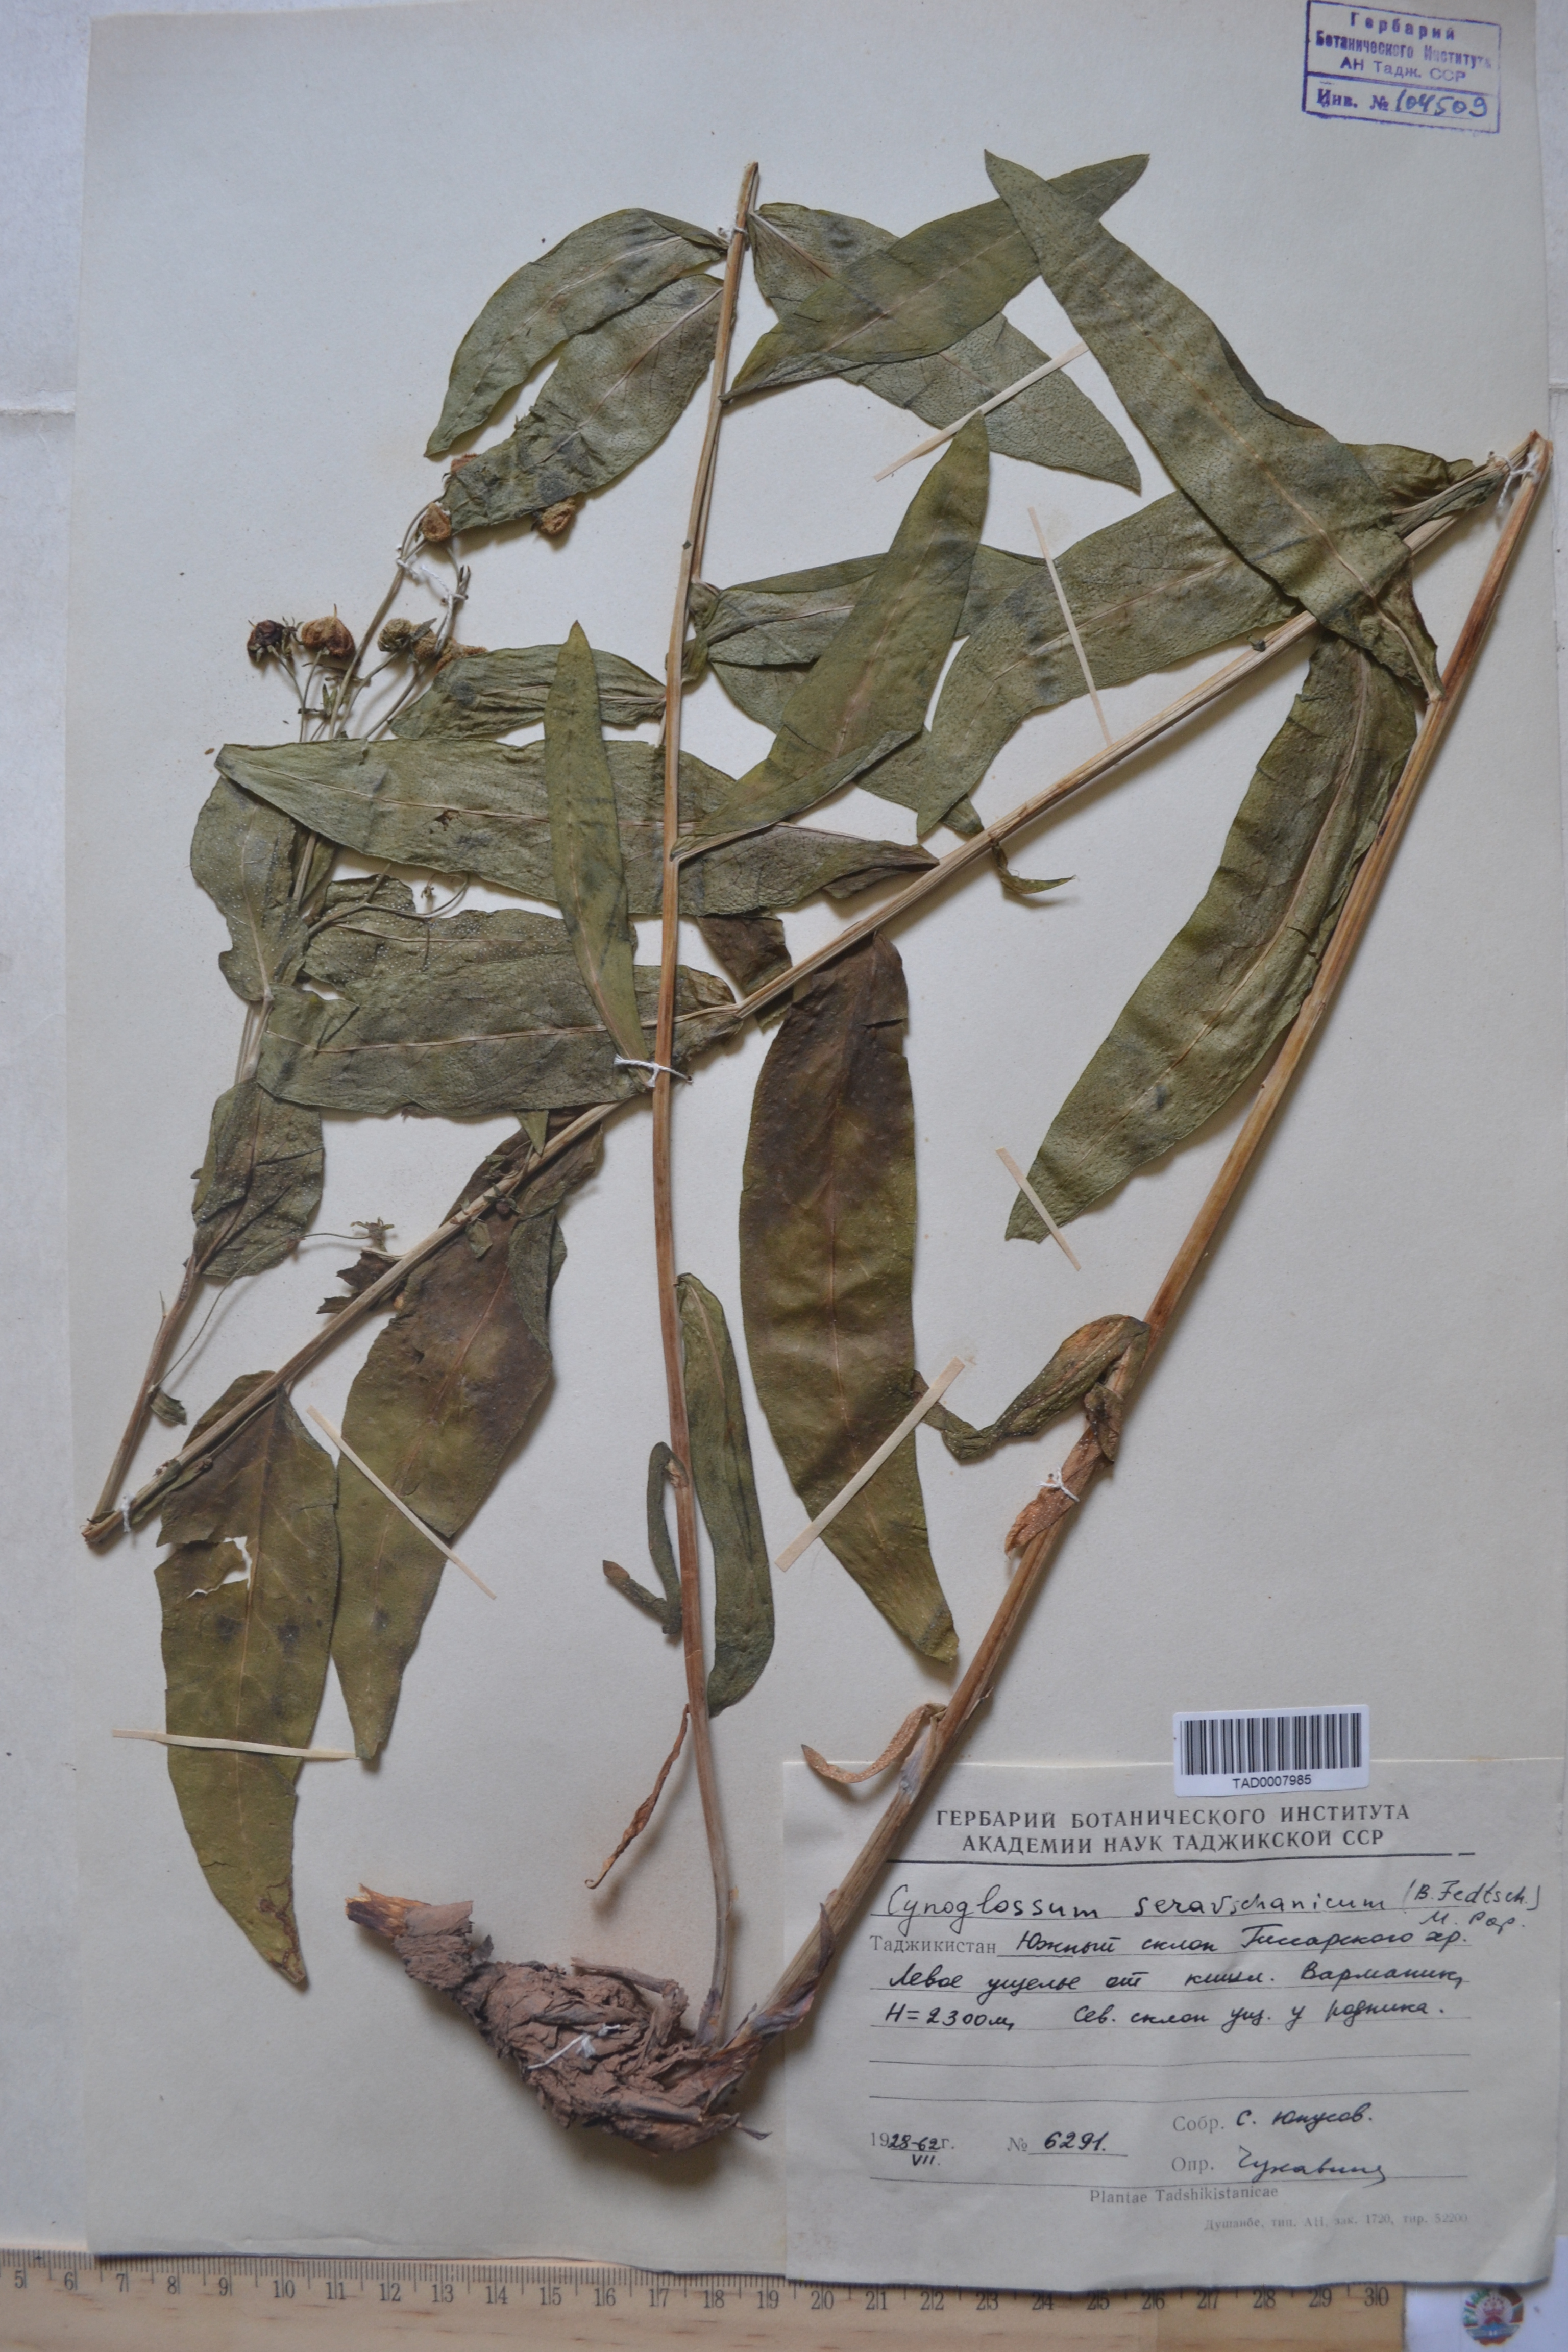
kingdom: Plantae
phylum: Tracheophyta
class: Magnoliopsida
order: Boraginales
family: Boraginaceae
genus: Cynoglossum
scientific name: Cynoglossum seravschanicum
